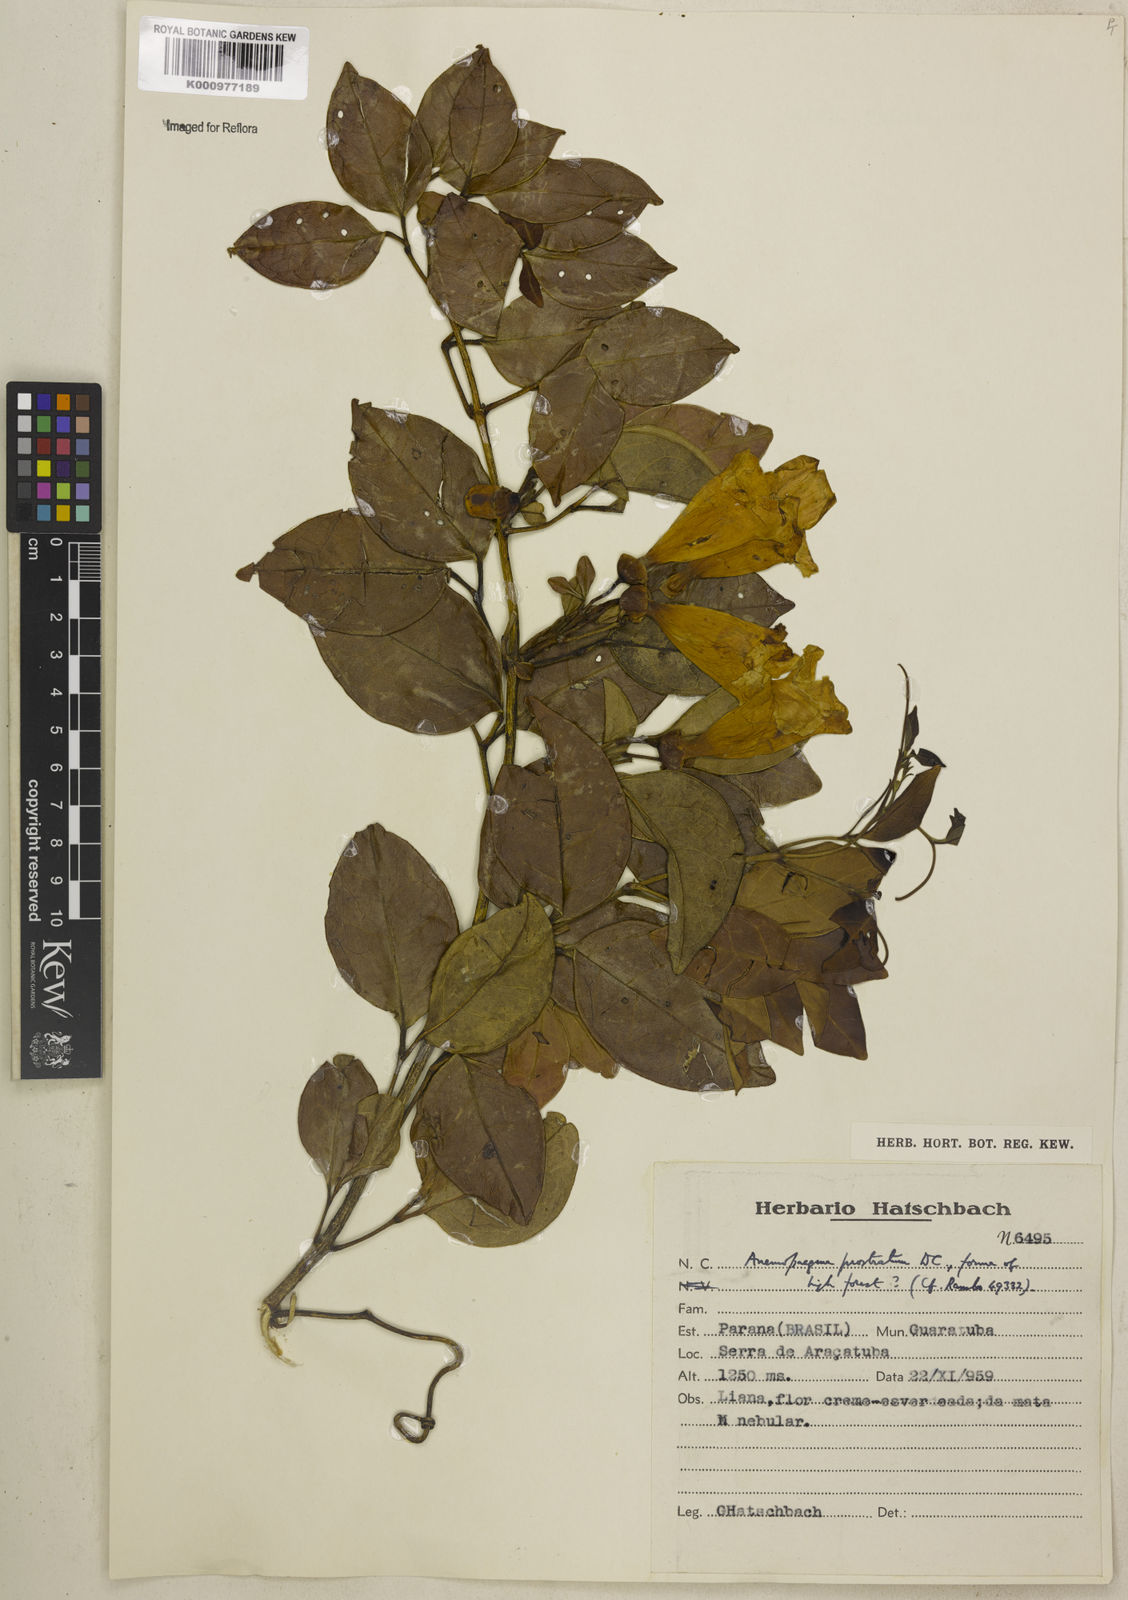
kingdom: Plantae
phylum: Tracheophyta
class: Magnoliopsida
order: Lamiales
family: Bignoniaceae
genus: Anemopaegma
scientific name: Anemopaegma nebulosum
